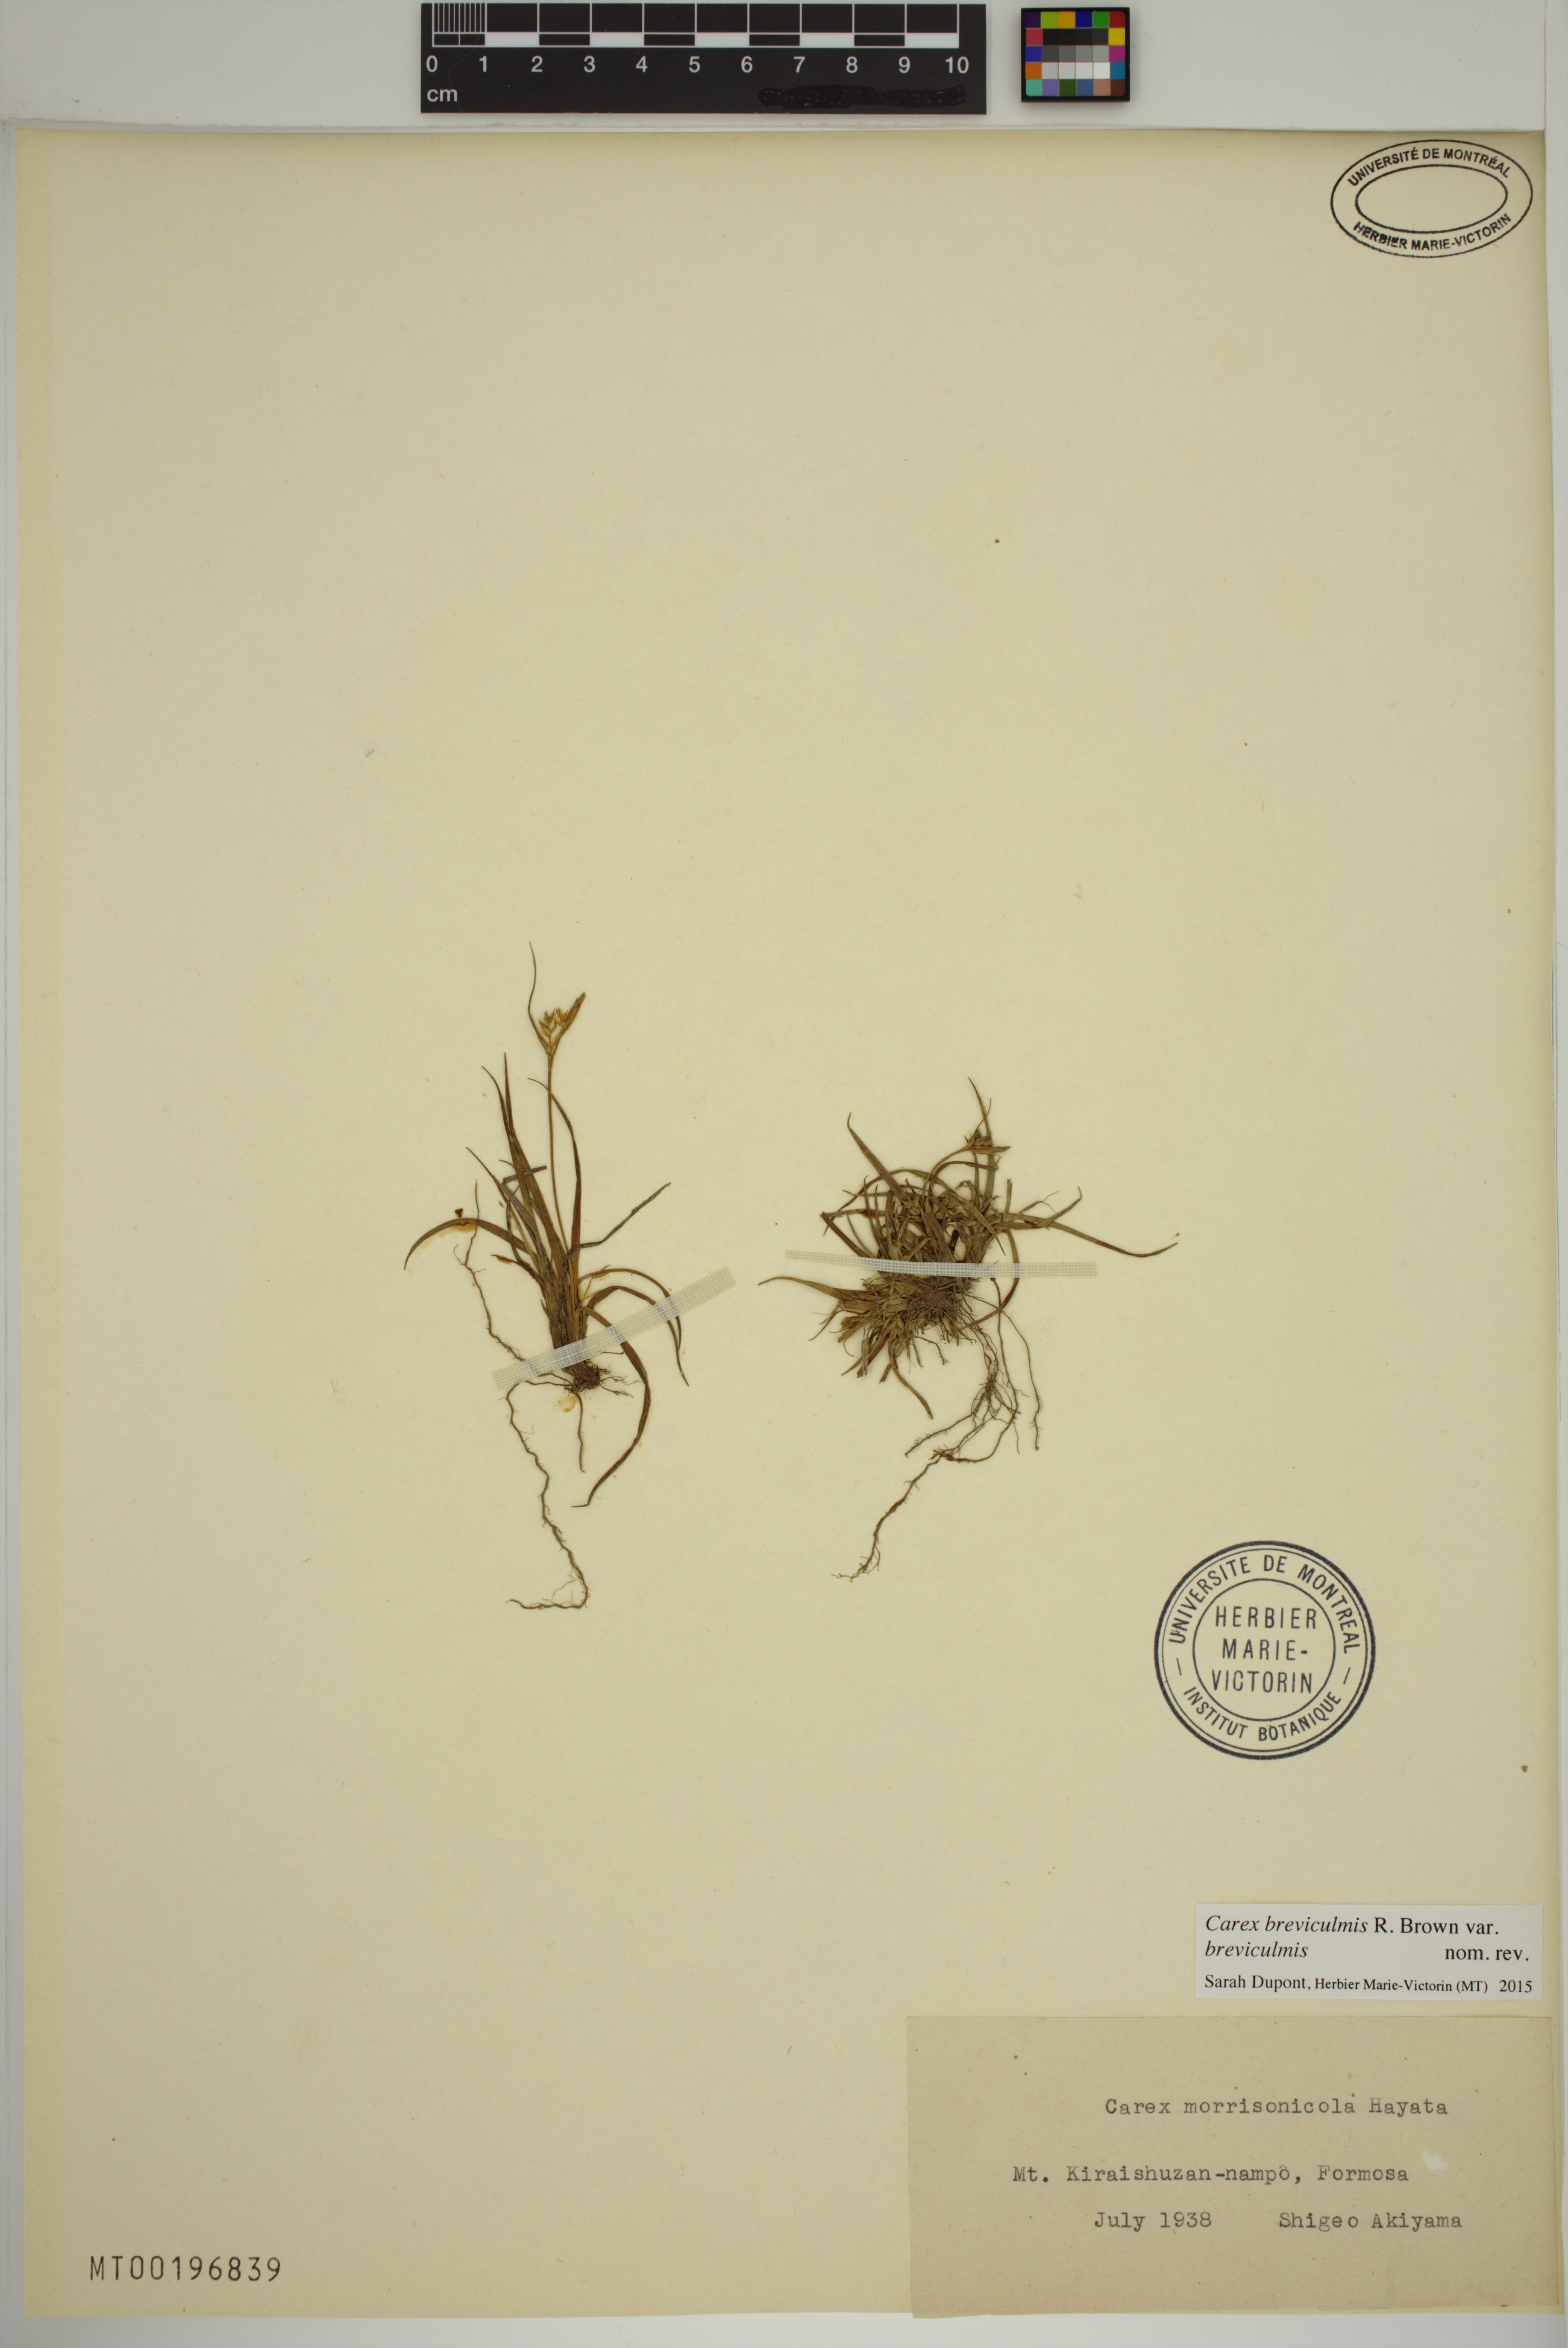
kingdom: Plantae
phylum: Tracheophyta
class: Liliopsida
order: Poales
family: Cyperaceae
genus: Carex
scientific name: Carex breviculmis
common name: Asian shortstem sedge
